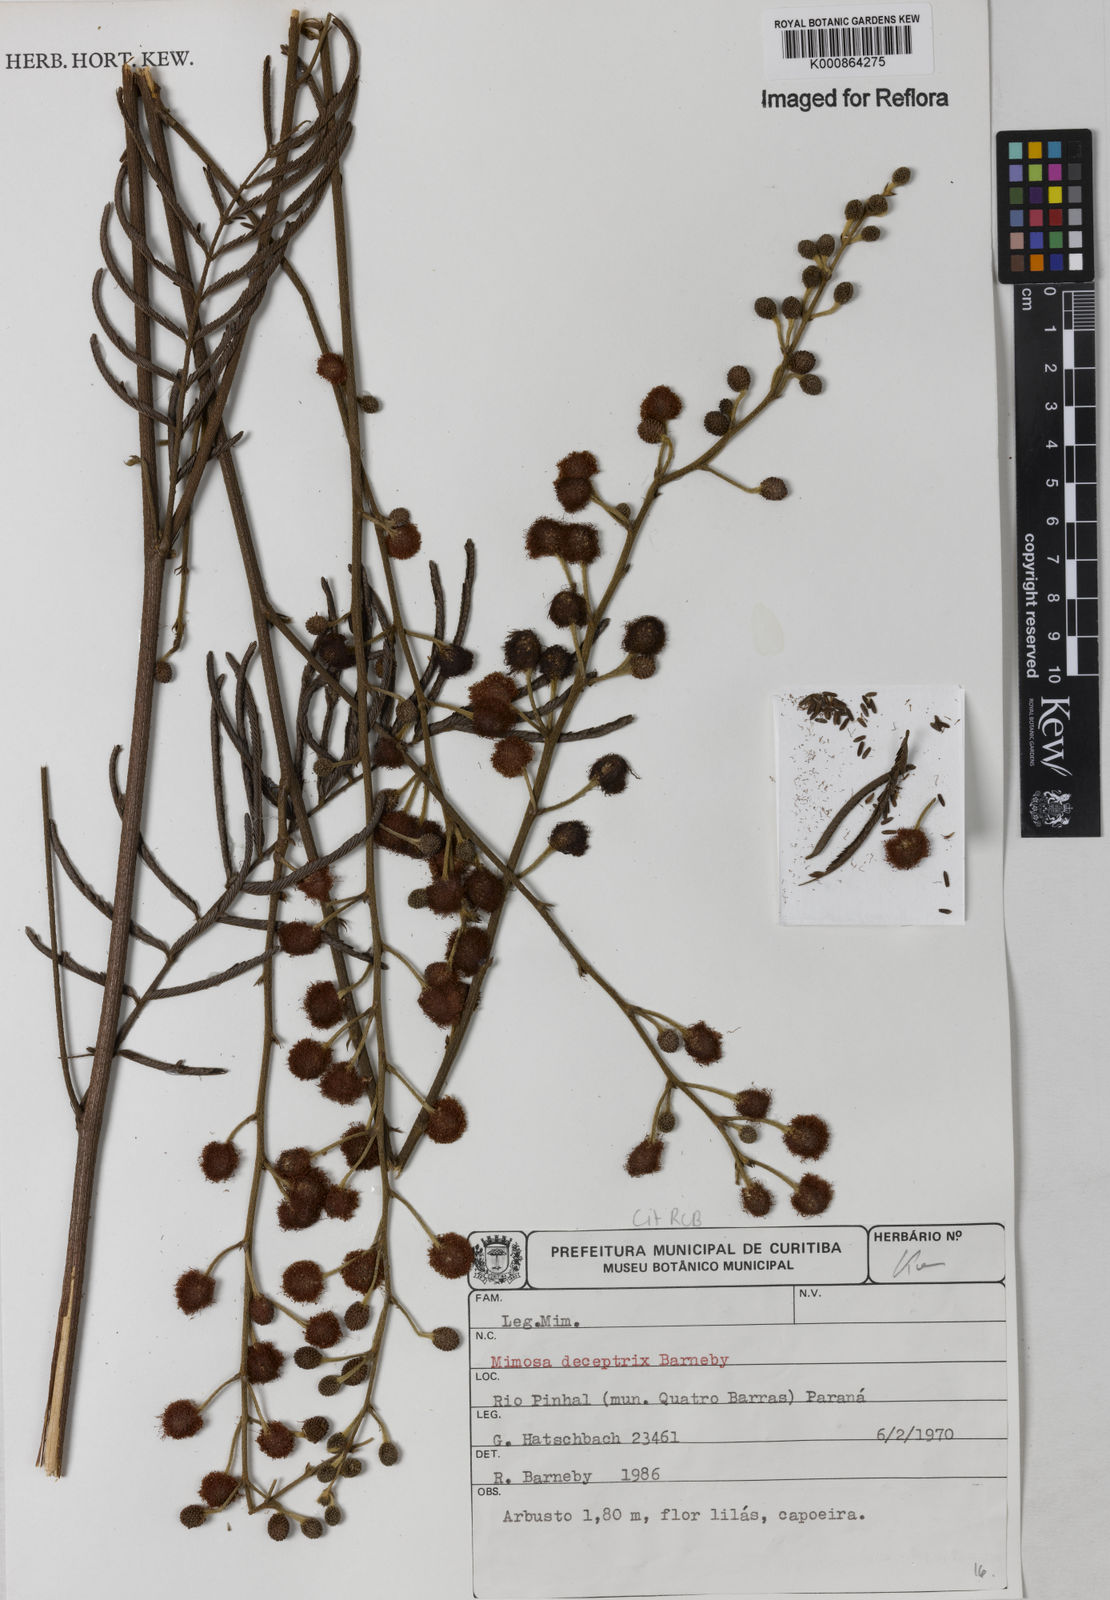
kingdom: Plantae
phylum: Tracheophyta
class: Magnoliopsida
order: Fabales
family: Fabaceae
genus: Mimosa
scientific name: Mimosa deceptrix
